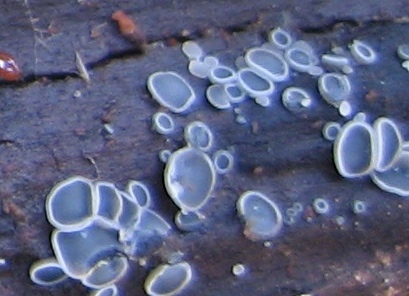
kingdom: Fungi
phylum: Ascomycota
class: Leotiomycetes
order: Helotiales
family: Mollisiaceae
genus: Mollisia
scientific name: Mollisia
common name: gråskive
